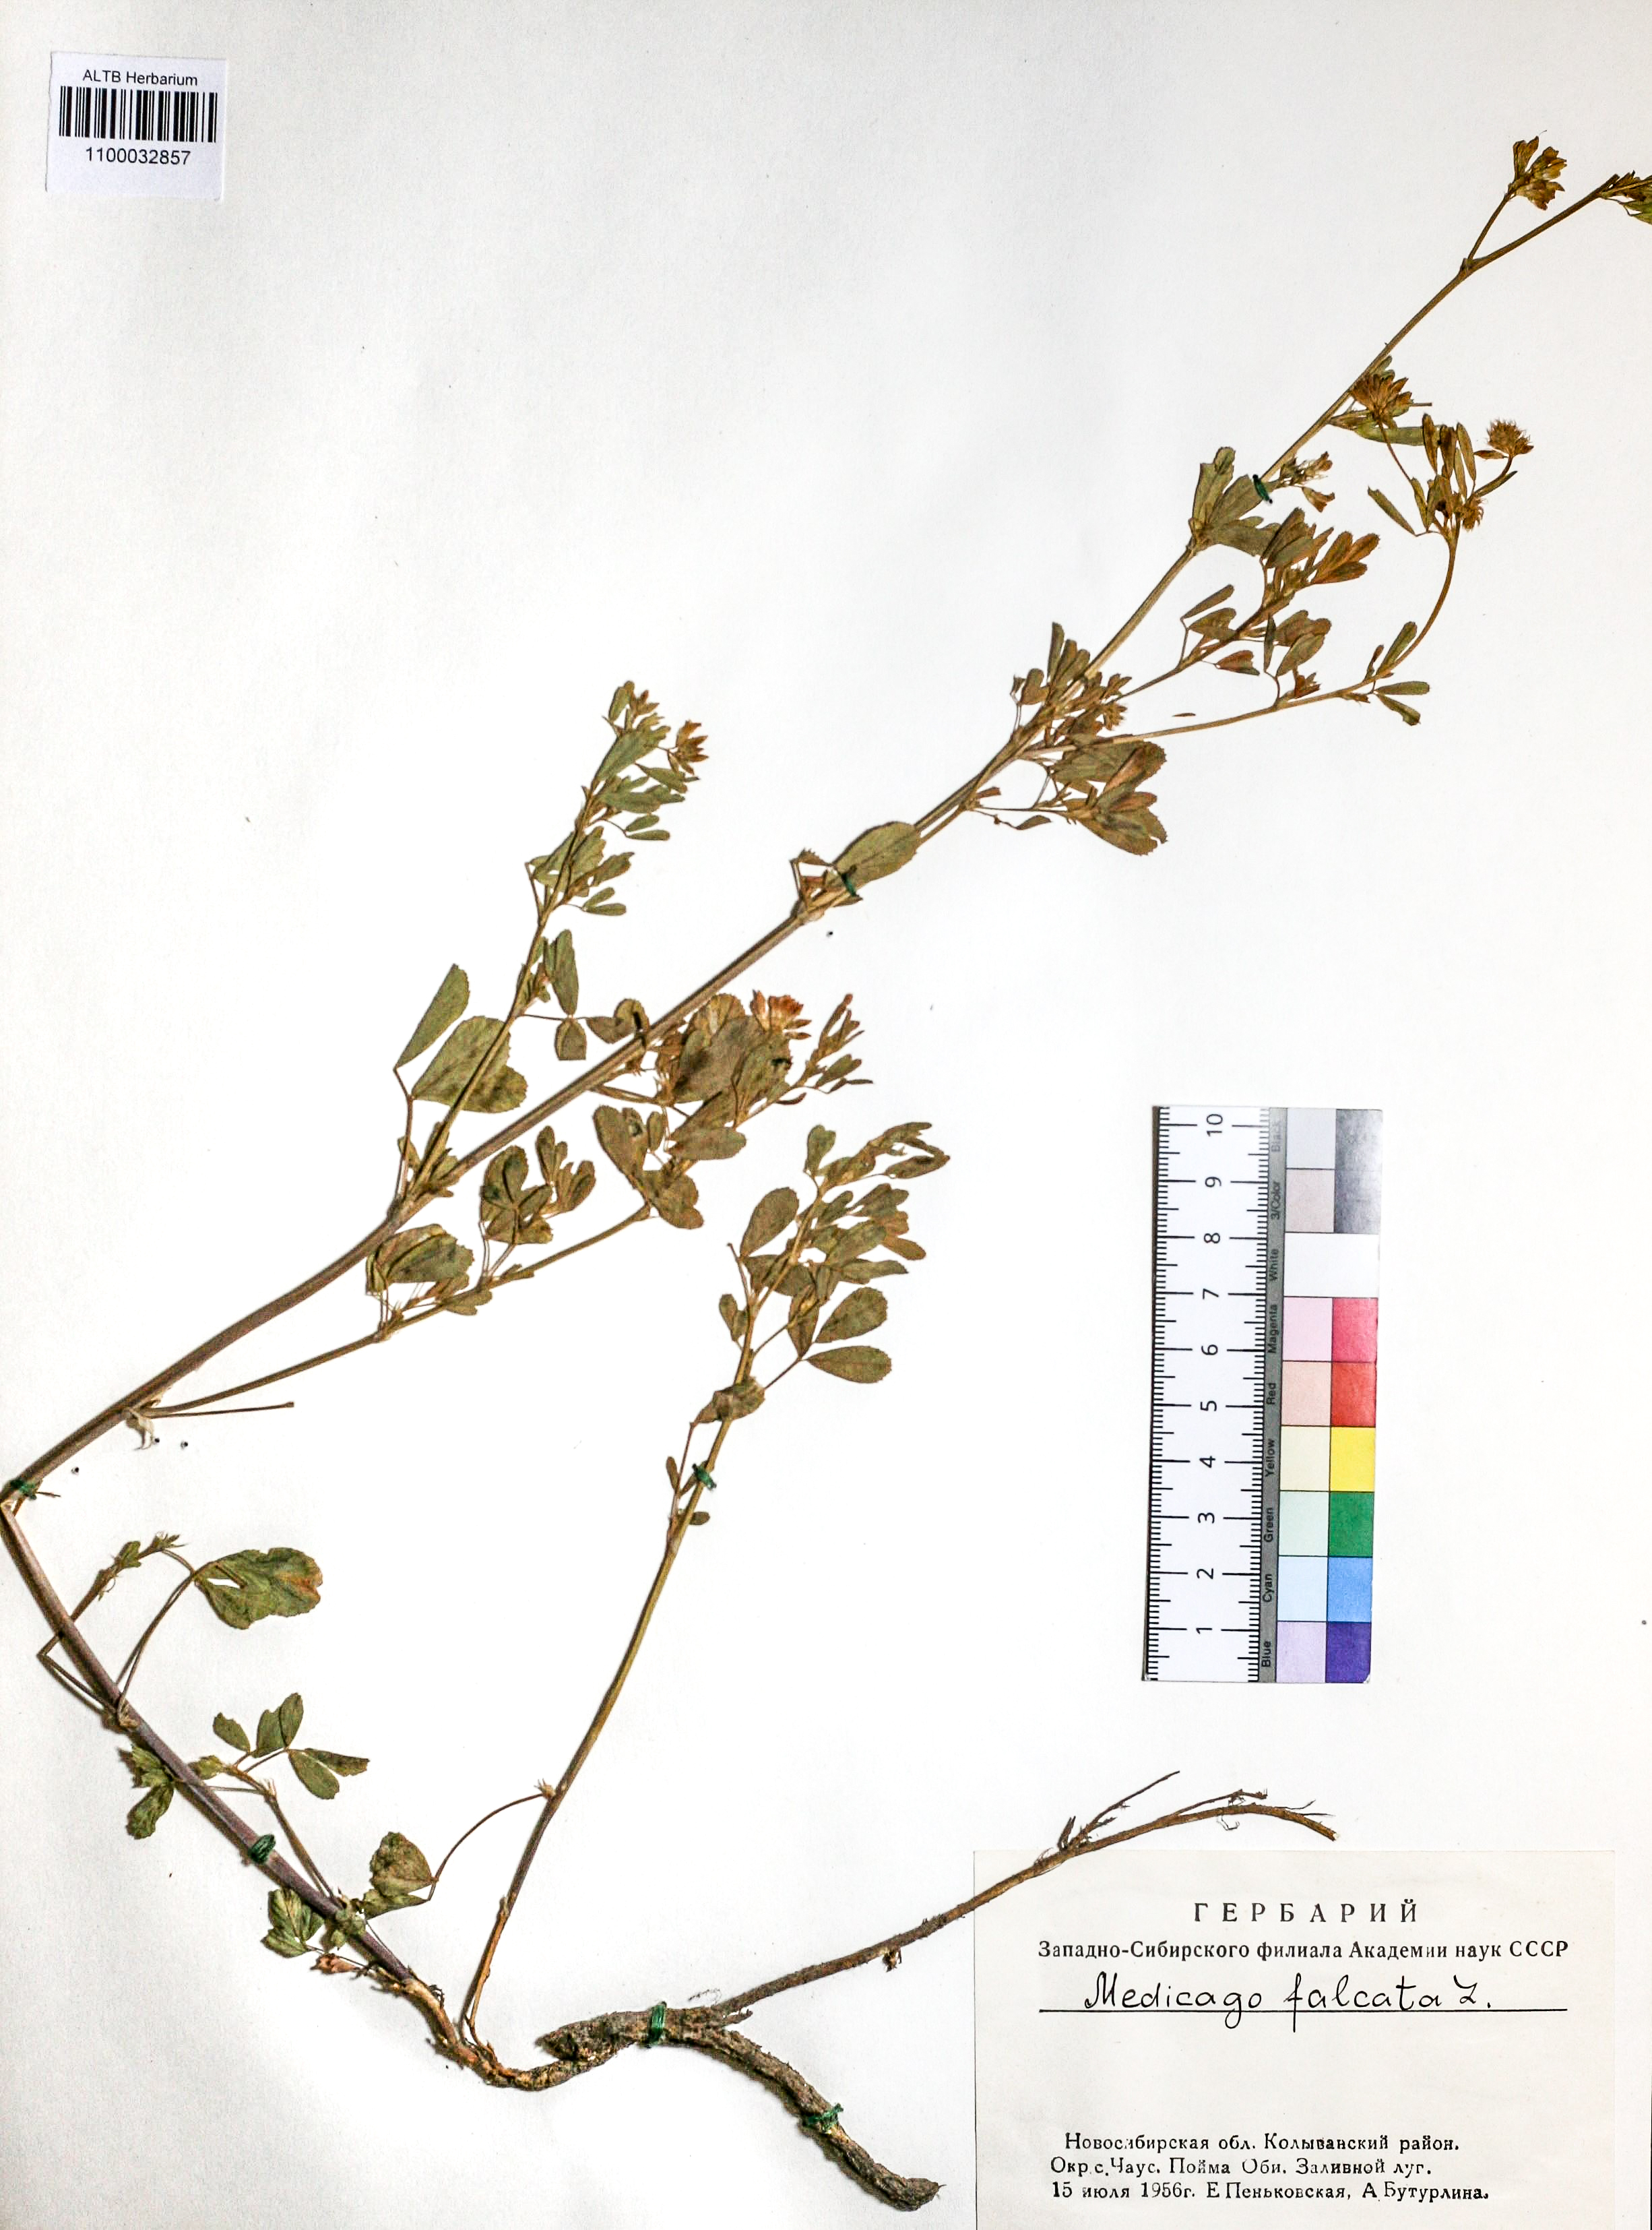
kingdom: Plantae
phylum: Tracheophyta
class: Magnoliopsida
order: Fabales
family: Fabaceae
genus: Medicago
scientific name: Medicago falcata
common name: Sickle medick
